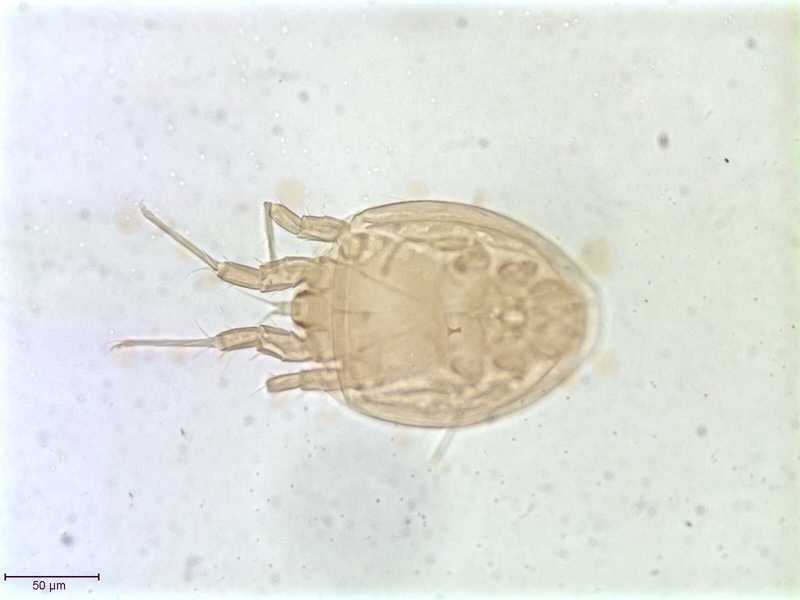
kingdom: Animalia
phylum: Arthropoda
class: Arachnida
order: Sarcoptiformes
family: Histiostomatidae
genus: Histiostoma
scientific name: Histiostoma prodectoris
